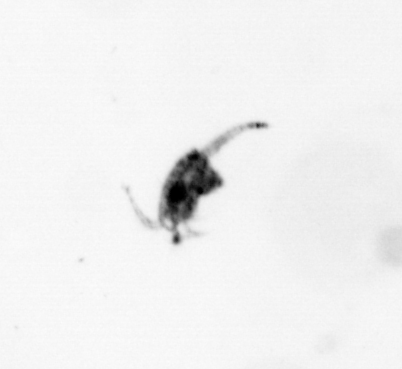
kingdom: Animalia
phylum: Arthropoda
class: Copepoda
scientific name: Copepoda
